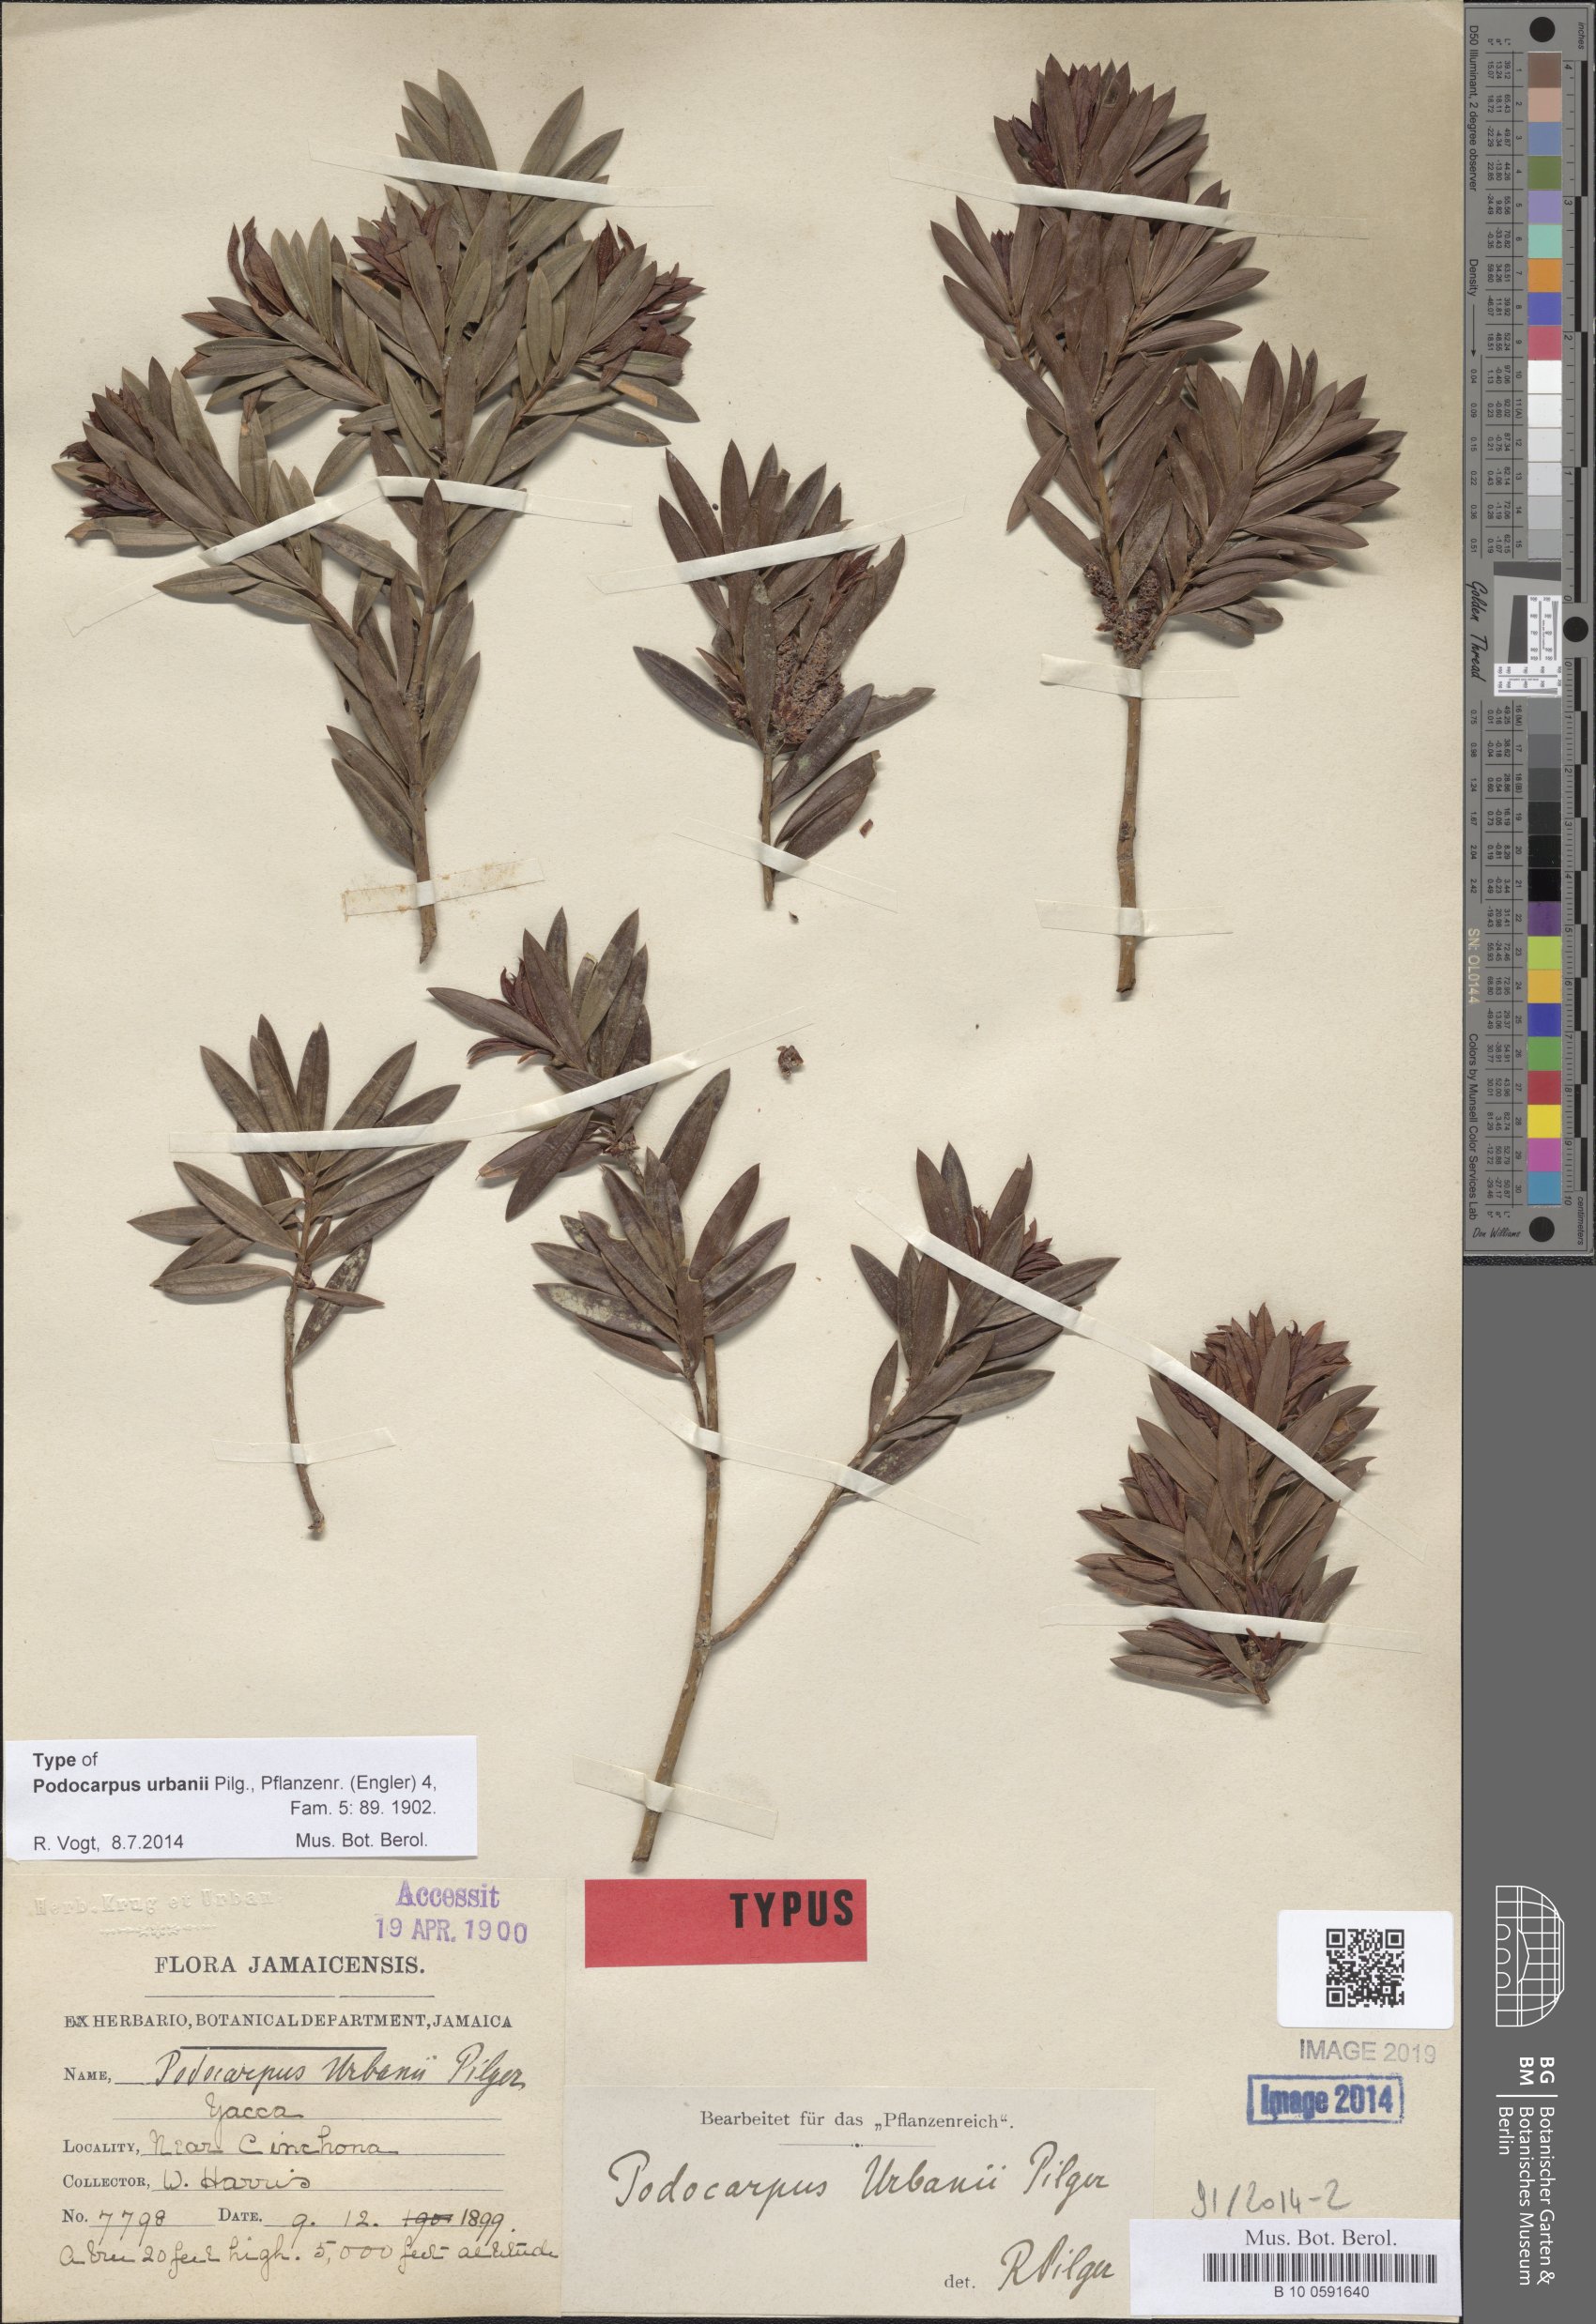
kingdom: Plantae
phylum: Tracheophyta
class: Pinopsida
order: Pinales
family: Podocarpaceae
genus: Podocarpus
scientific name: Podocarpus urbanii
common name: Blue mountain yacca
